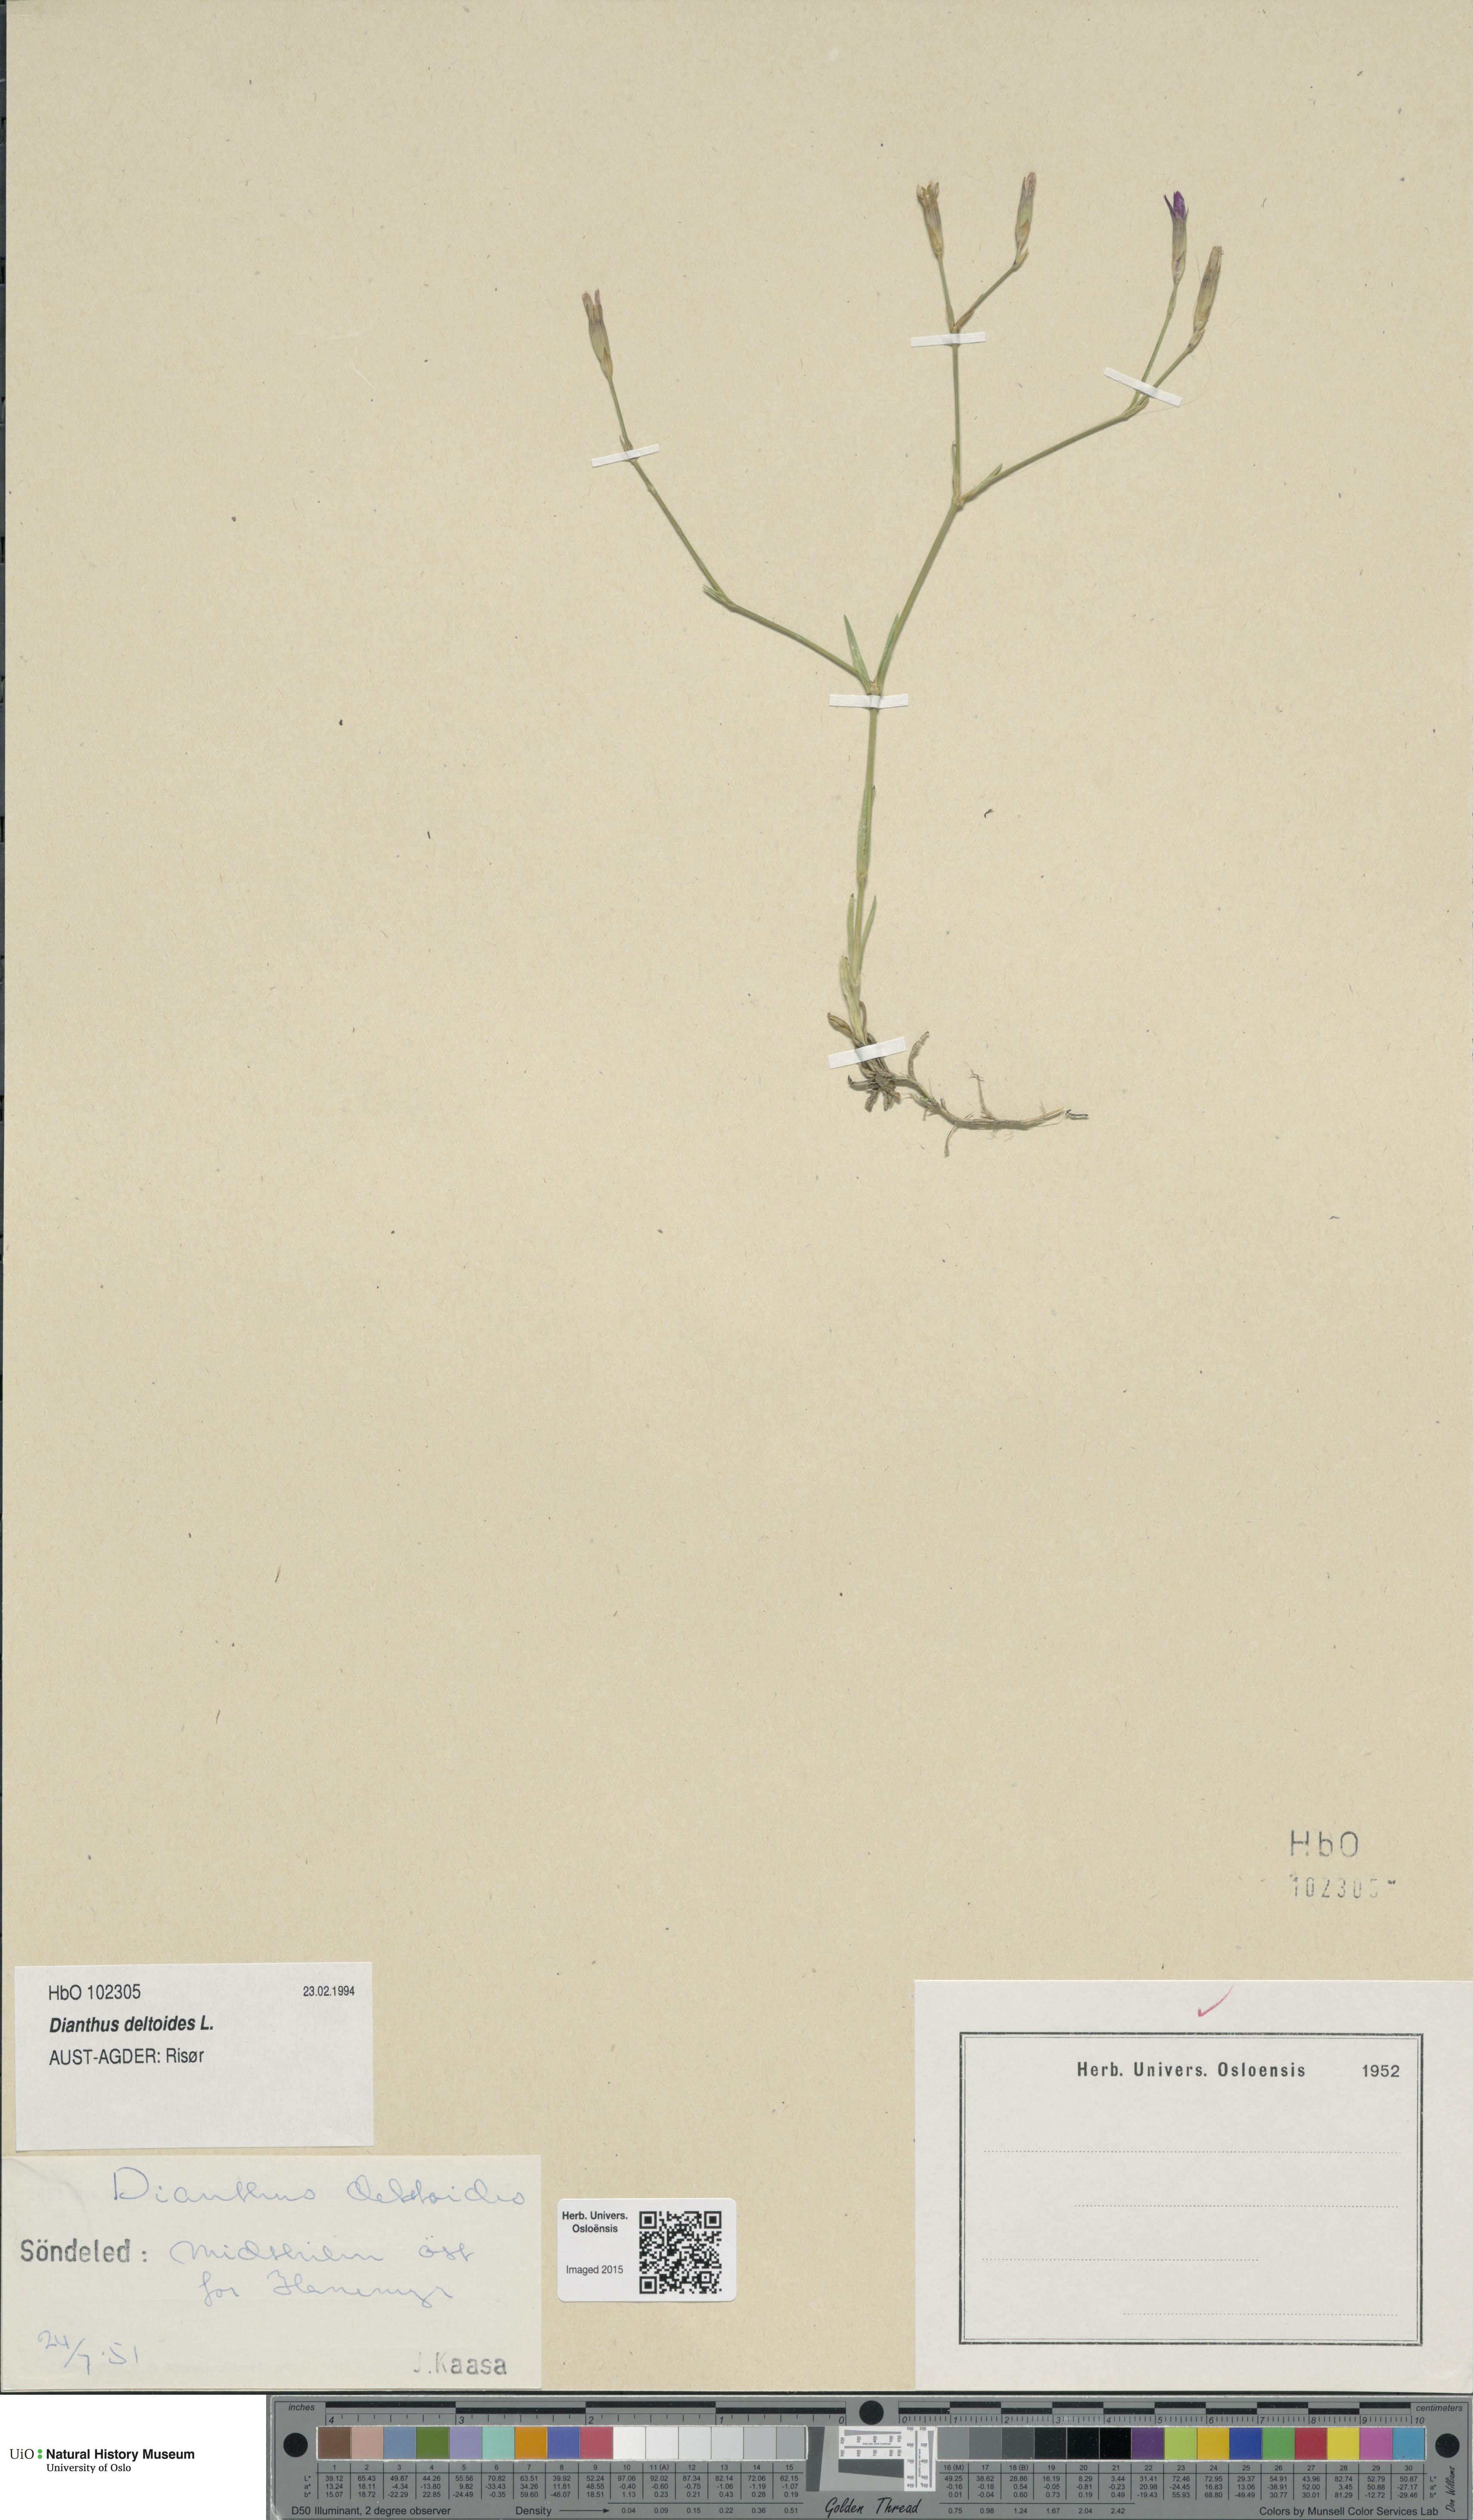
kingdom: Plantae
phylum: Tracheophyta
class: Magnoliopsida
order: Caryophyllales
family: Caryophyllaceae
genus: Dianthus
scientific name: Dianthus deltoides
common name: Maiden pink
